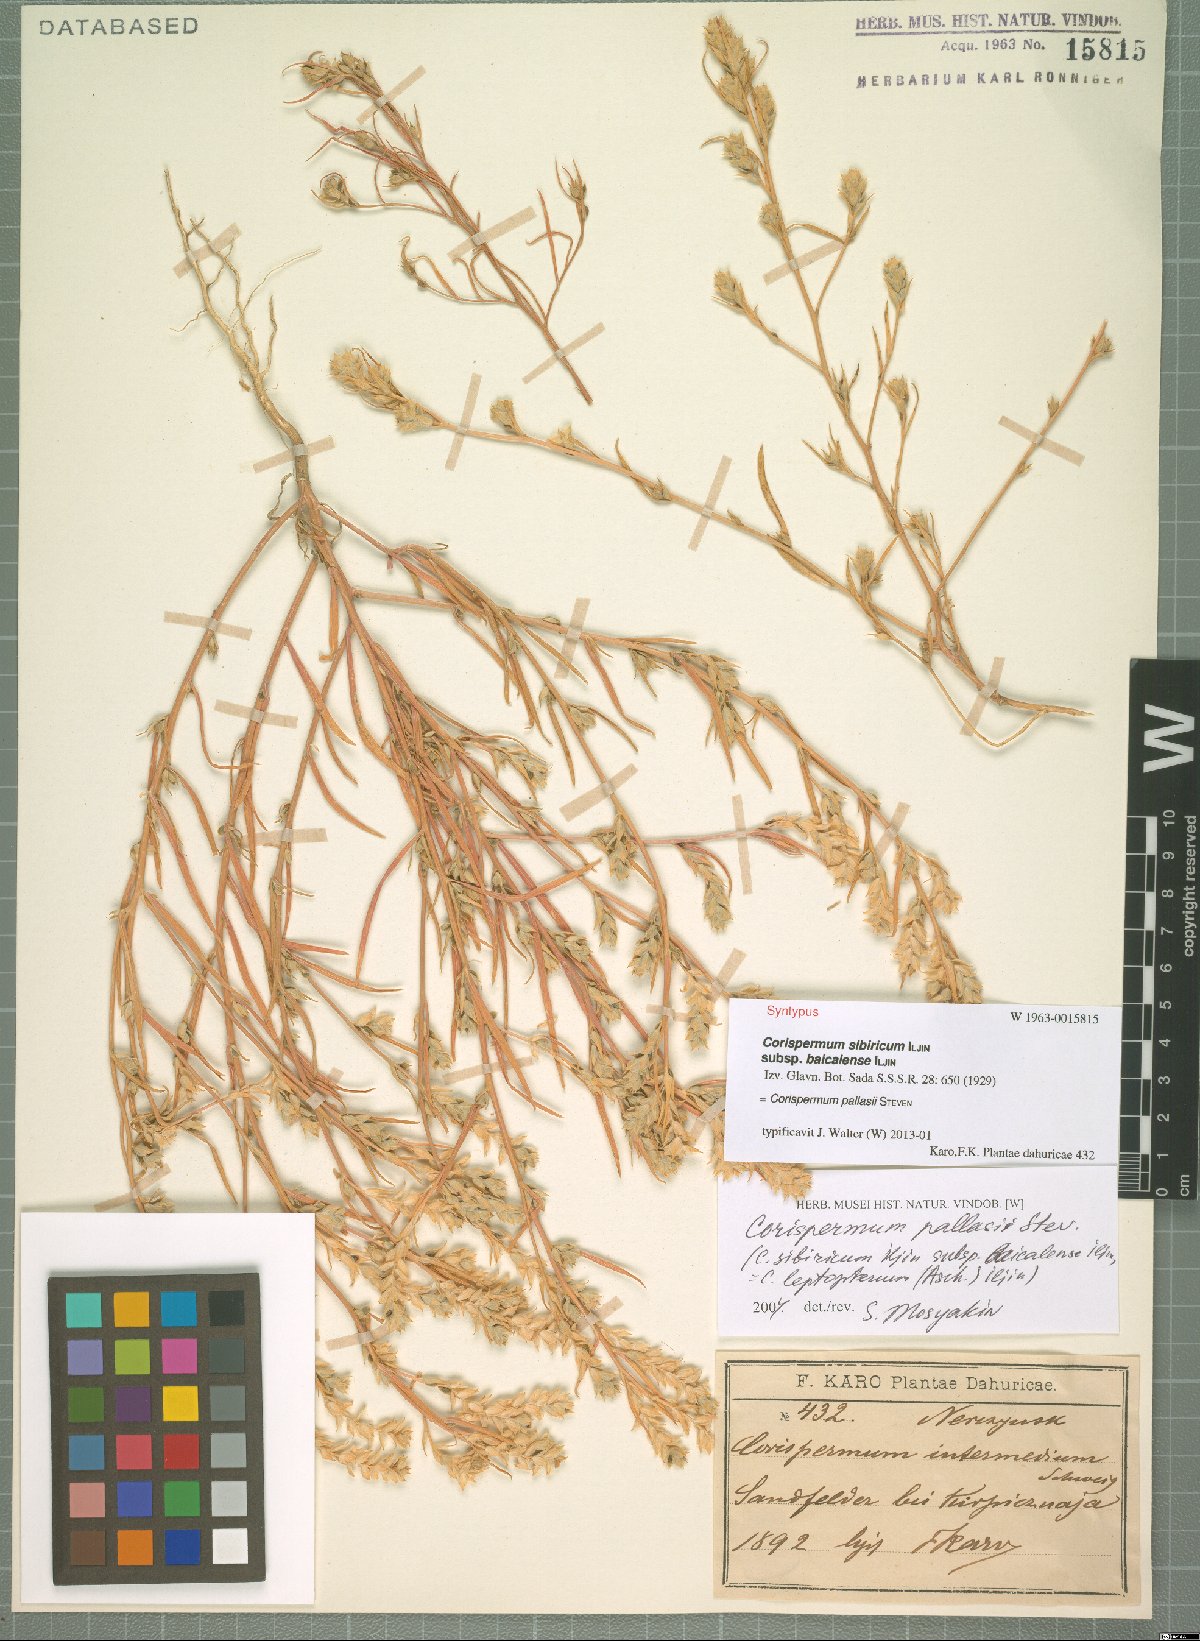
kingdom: Plantae
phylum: Tracheophyta
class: Magnoliopsida
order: Caryophyllales
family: Amaranthaceae
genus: Corispermum
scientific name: Corispermum pallasii
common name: Siberian bugseed
